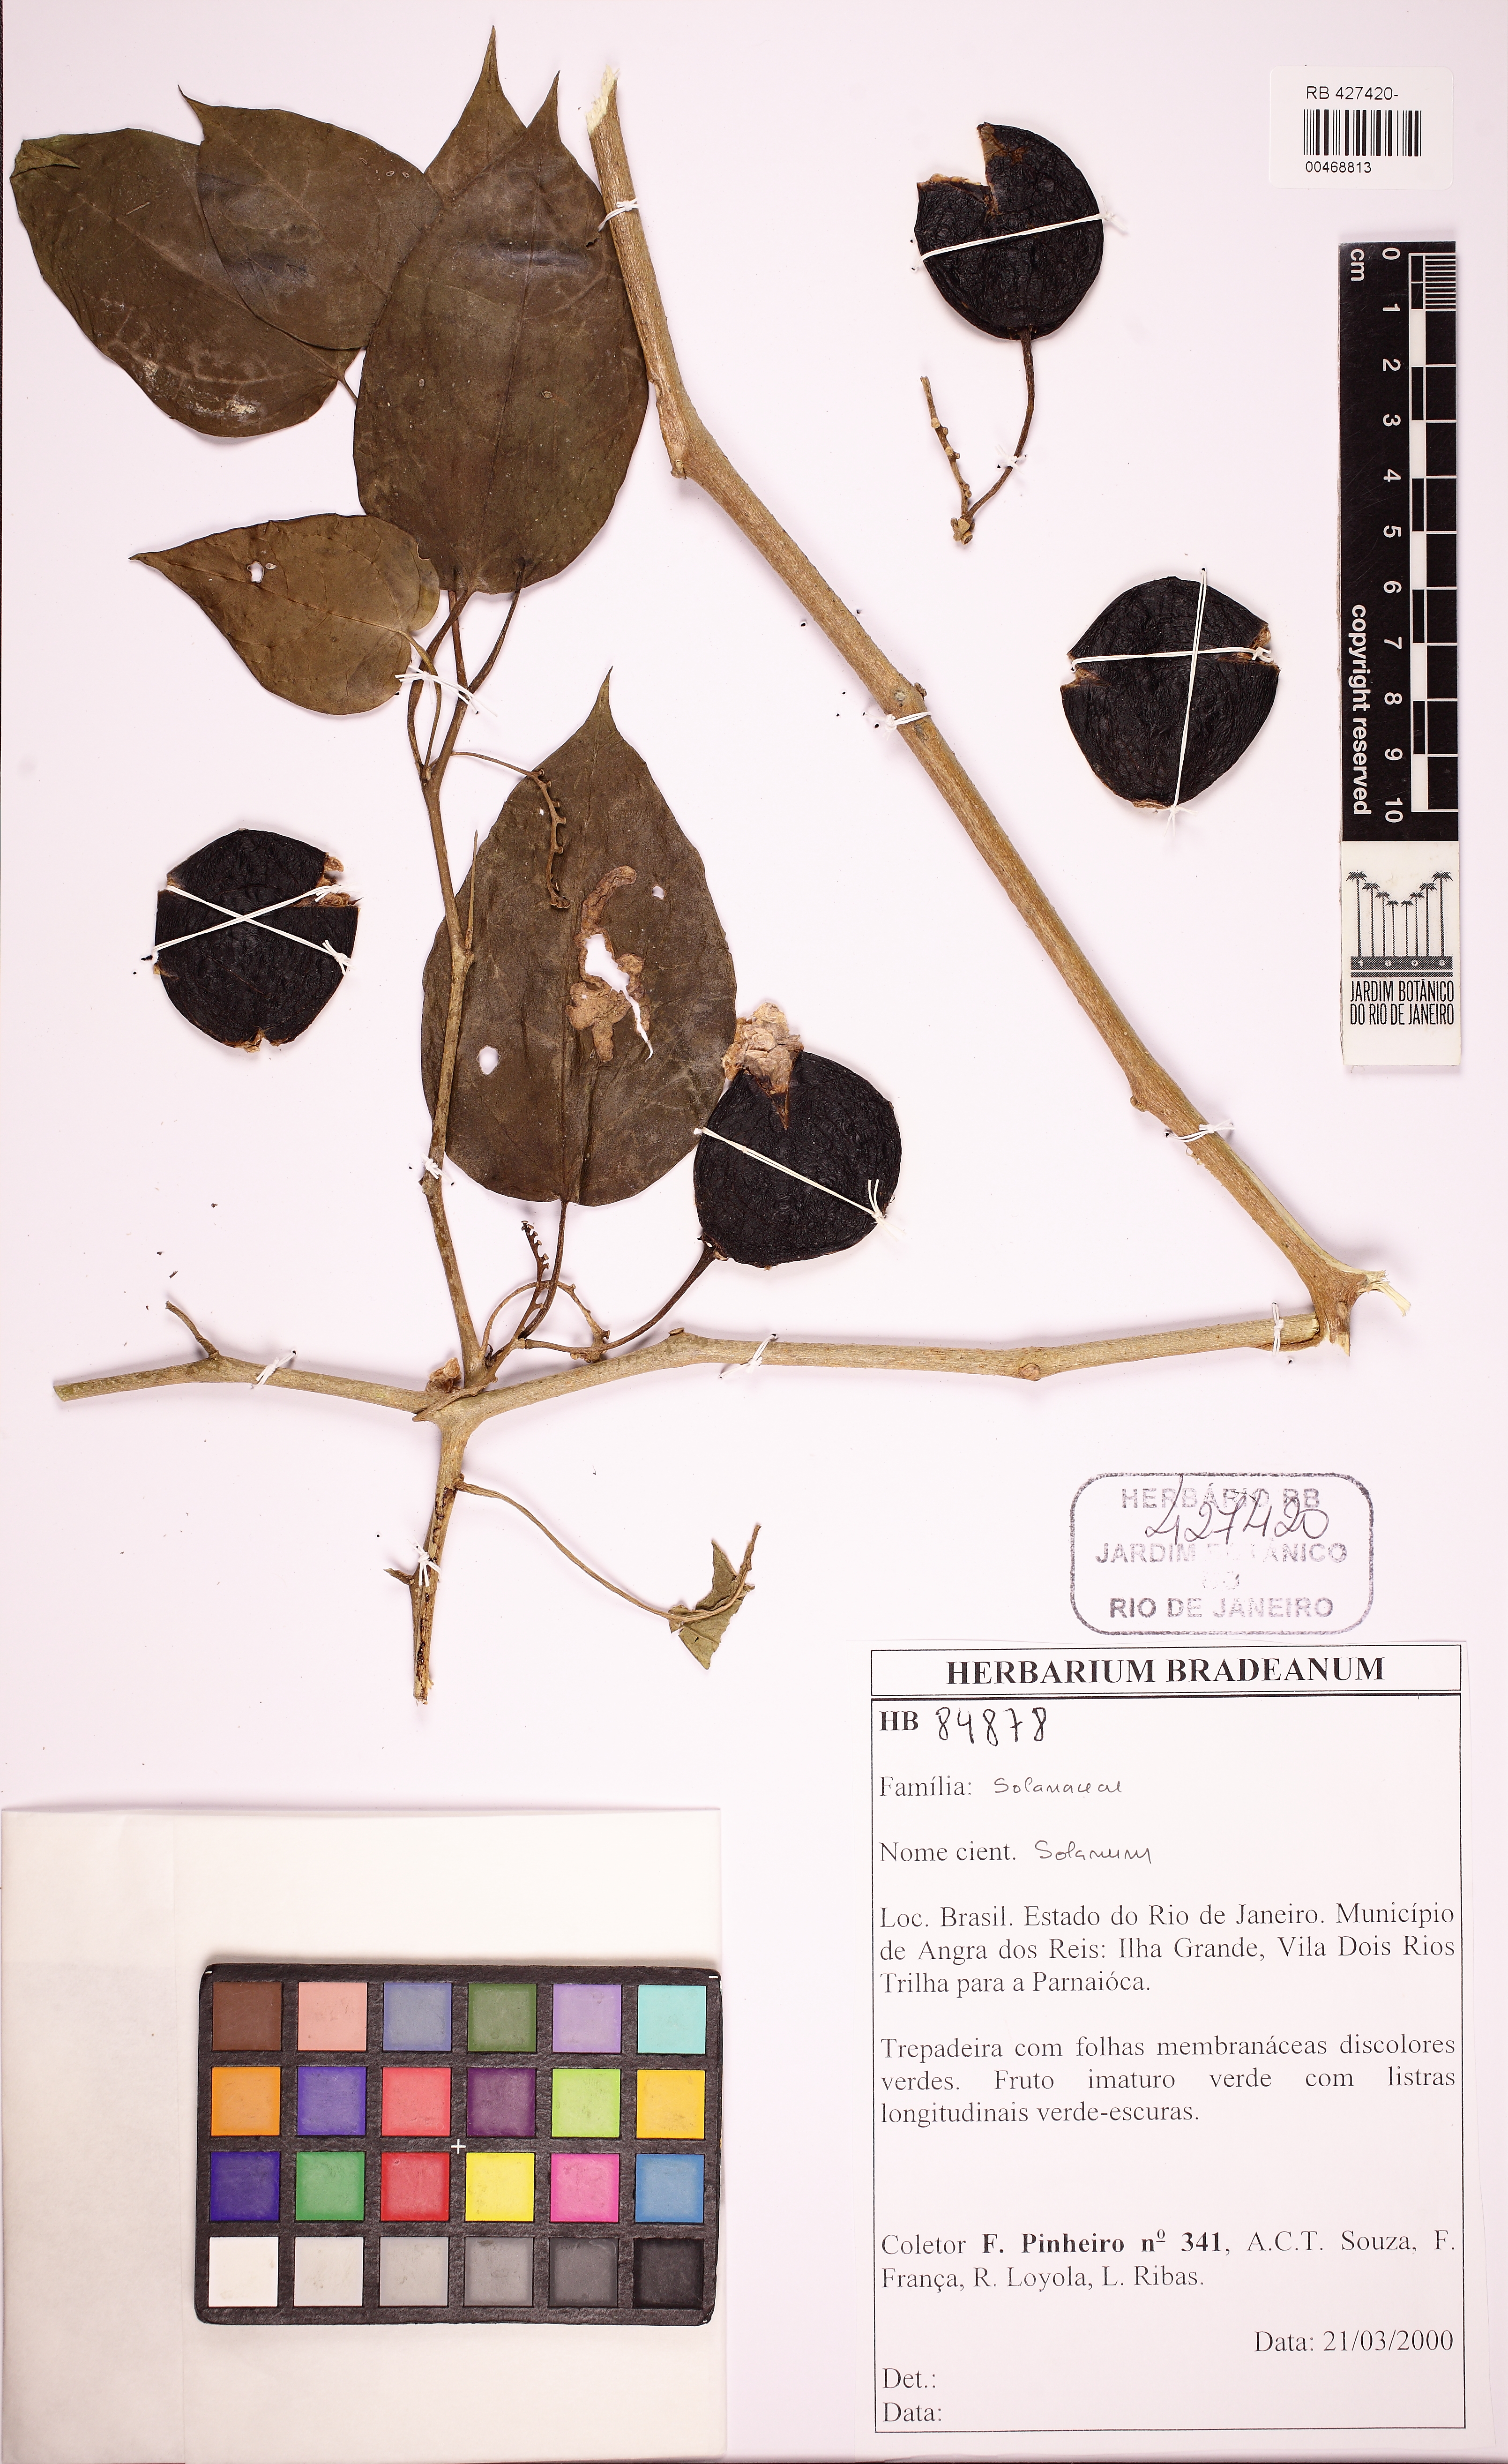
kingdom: Plantae
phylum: Tracheophyta
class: Magnoliopsida
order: Solanales
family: Solanaceae
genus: Solanum
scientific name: Solanum
